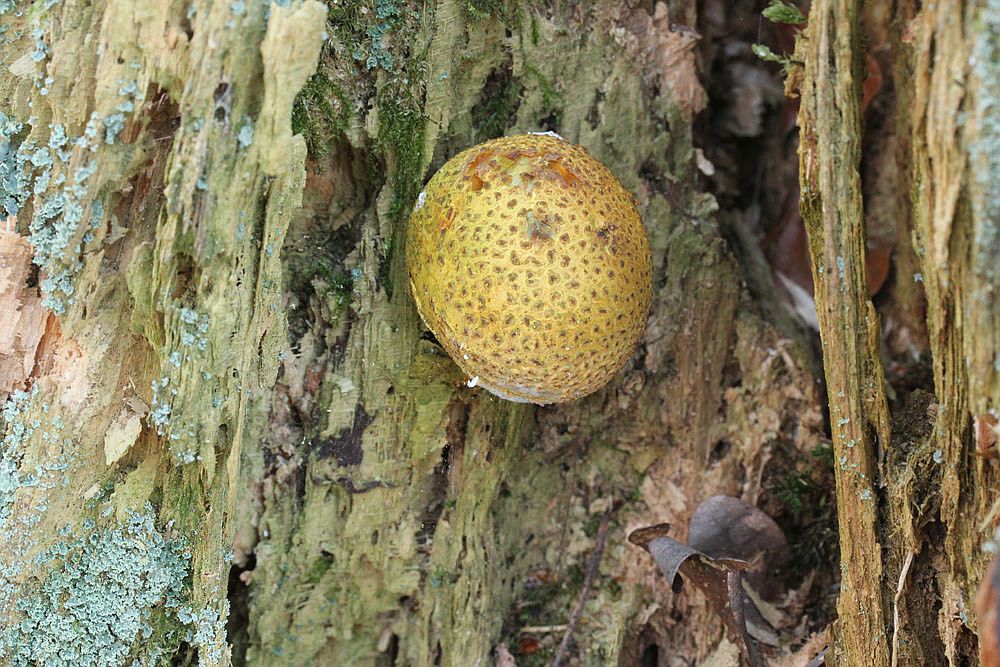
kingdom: Fungi
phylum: Basidiomycota
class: Agaricomycetes
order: Boletales
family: Sclerodermataceae
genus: Scleroderma
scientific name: Scleroderma citrinum
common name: almindelig bruskbold
